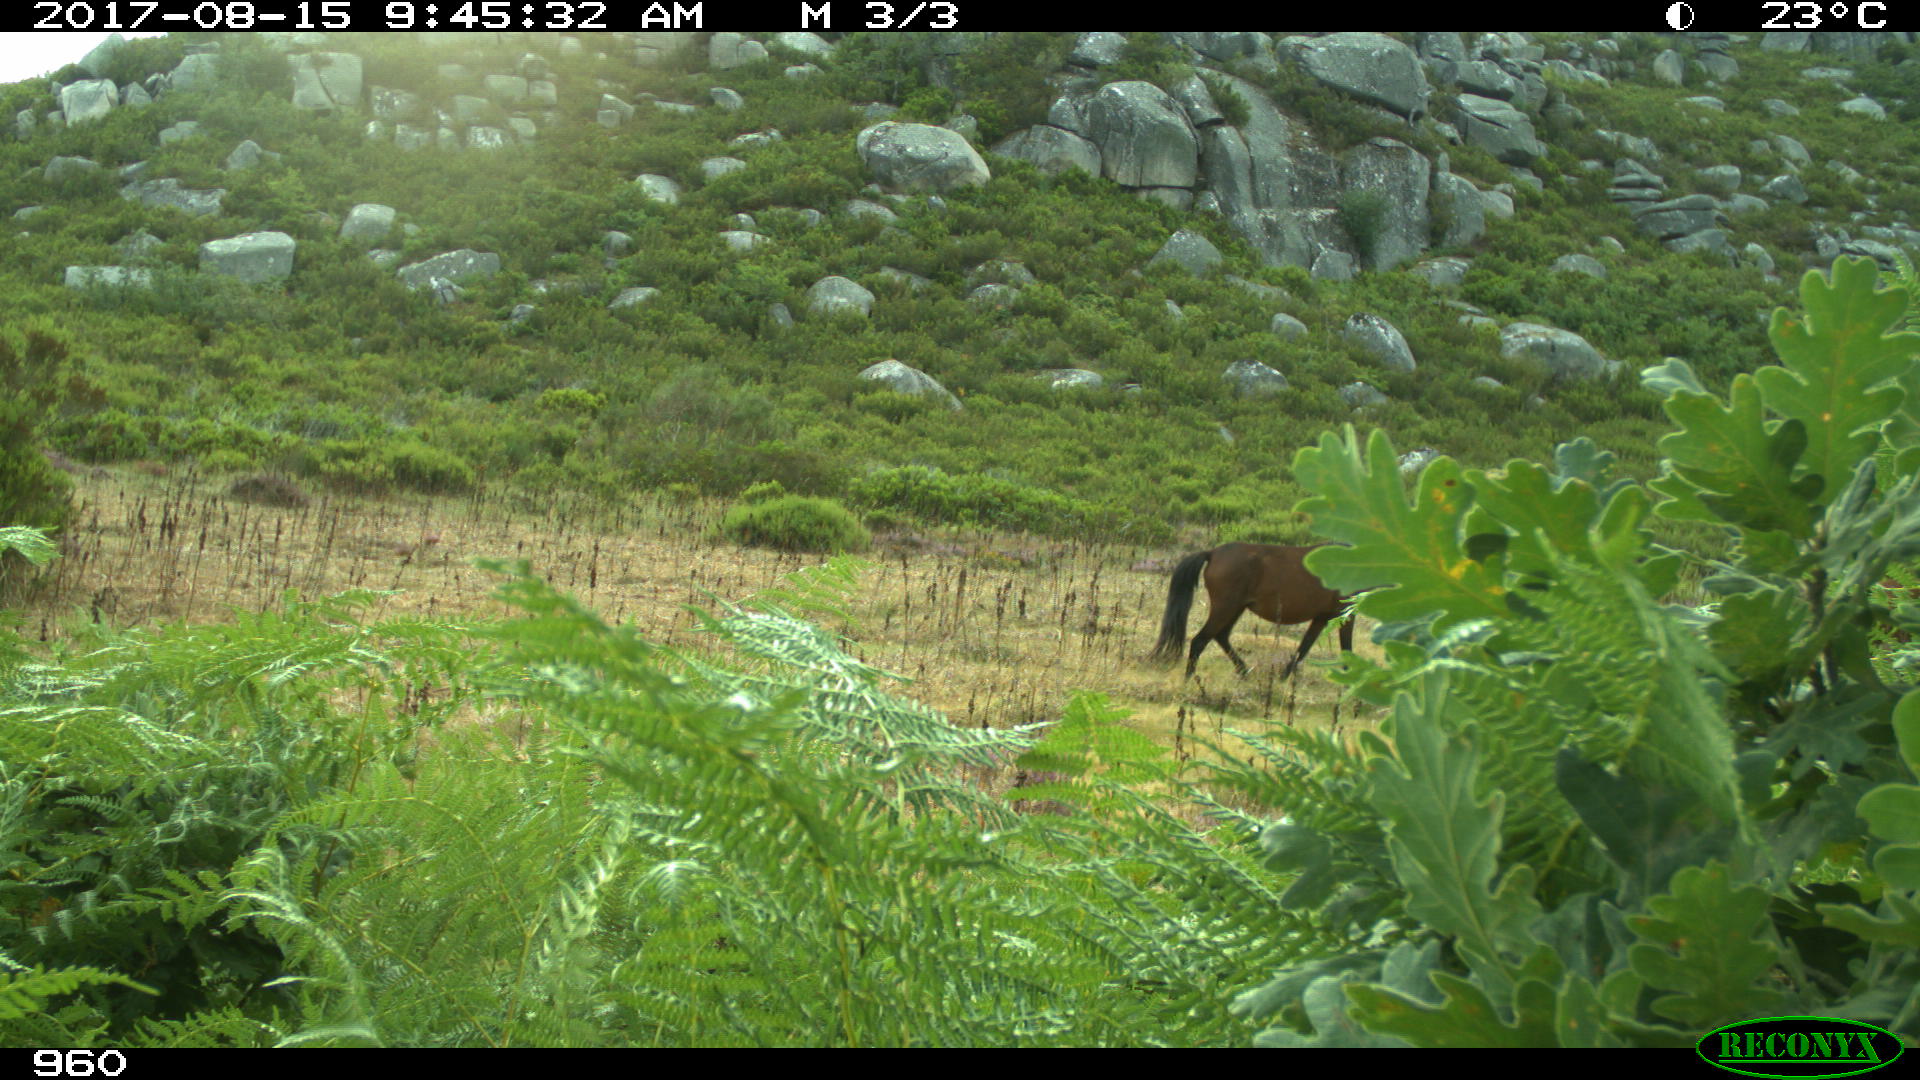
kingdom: Animalia
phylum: Chordata
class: Mammalia
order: Perissodactyla
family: Equidae
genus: Equus
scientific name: Equus caballus
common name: Horse
